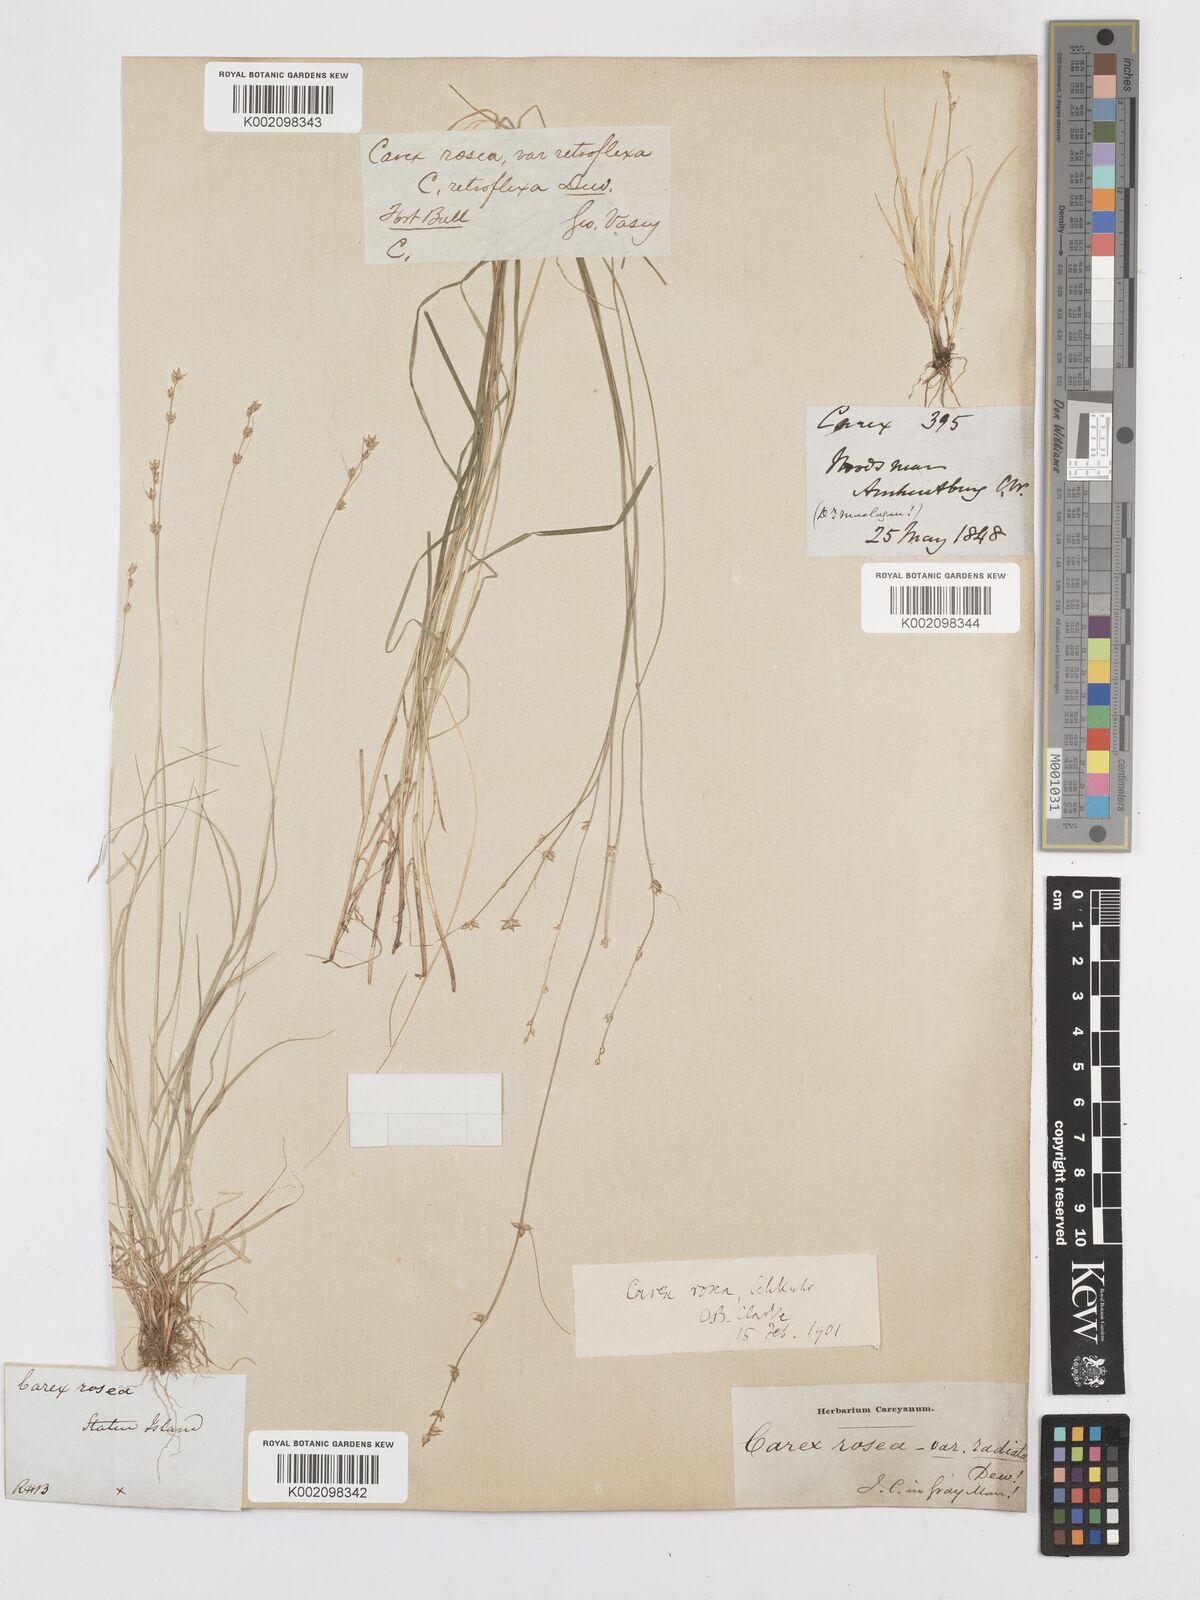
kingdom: Plantae
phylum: Tracheophyta
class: Liliopsida
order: Poales
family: Cyperaceae
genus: Carex
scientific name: Carex rosea
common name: Curly-styled wood sedge
